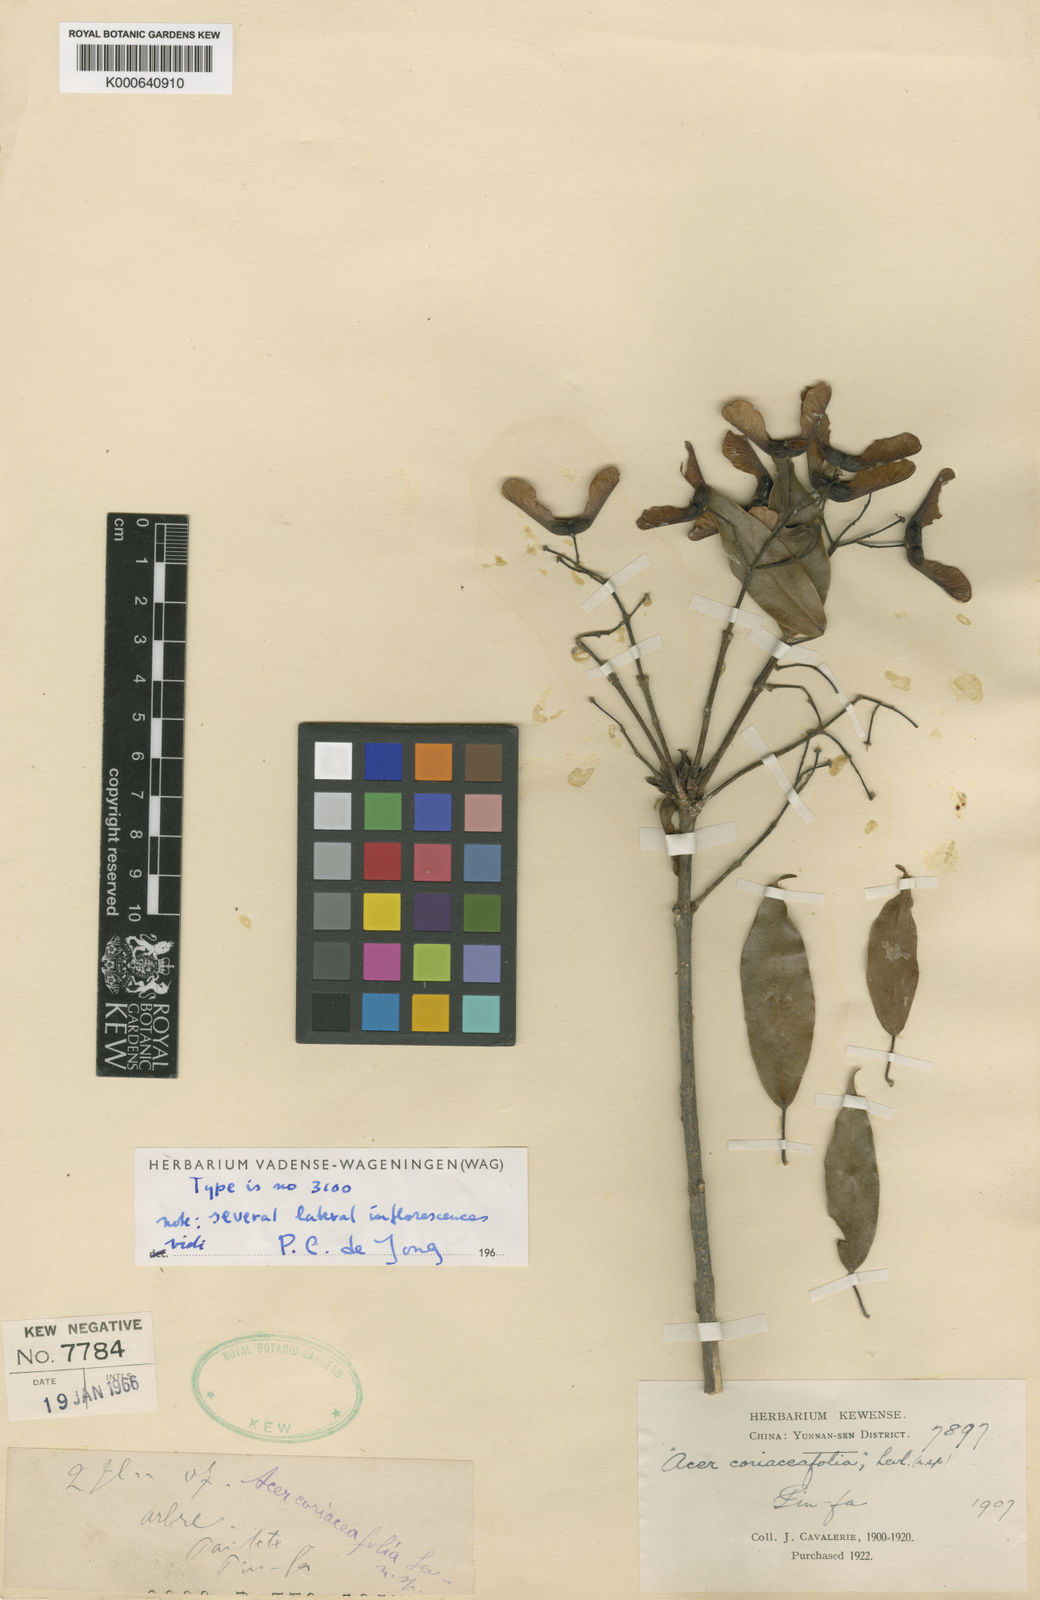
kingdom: Plantae
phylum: Tracheophyta
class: Magnoliopsida
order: Sapindales
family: Sapindaceae
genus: Acer
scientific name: Acer
